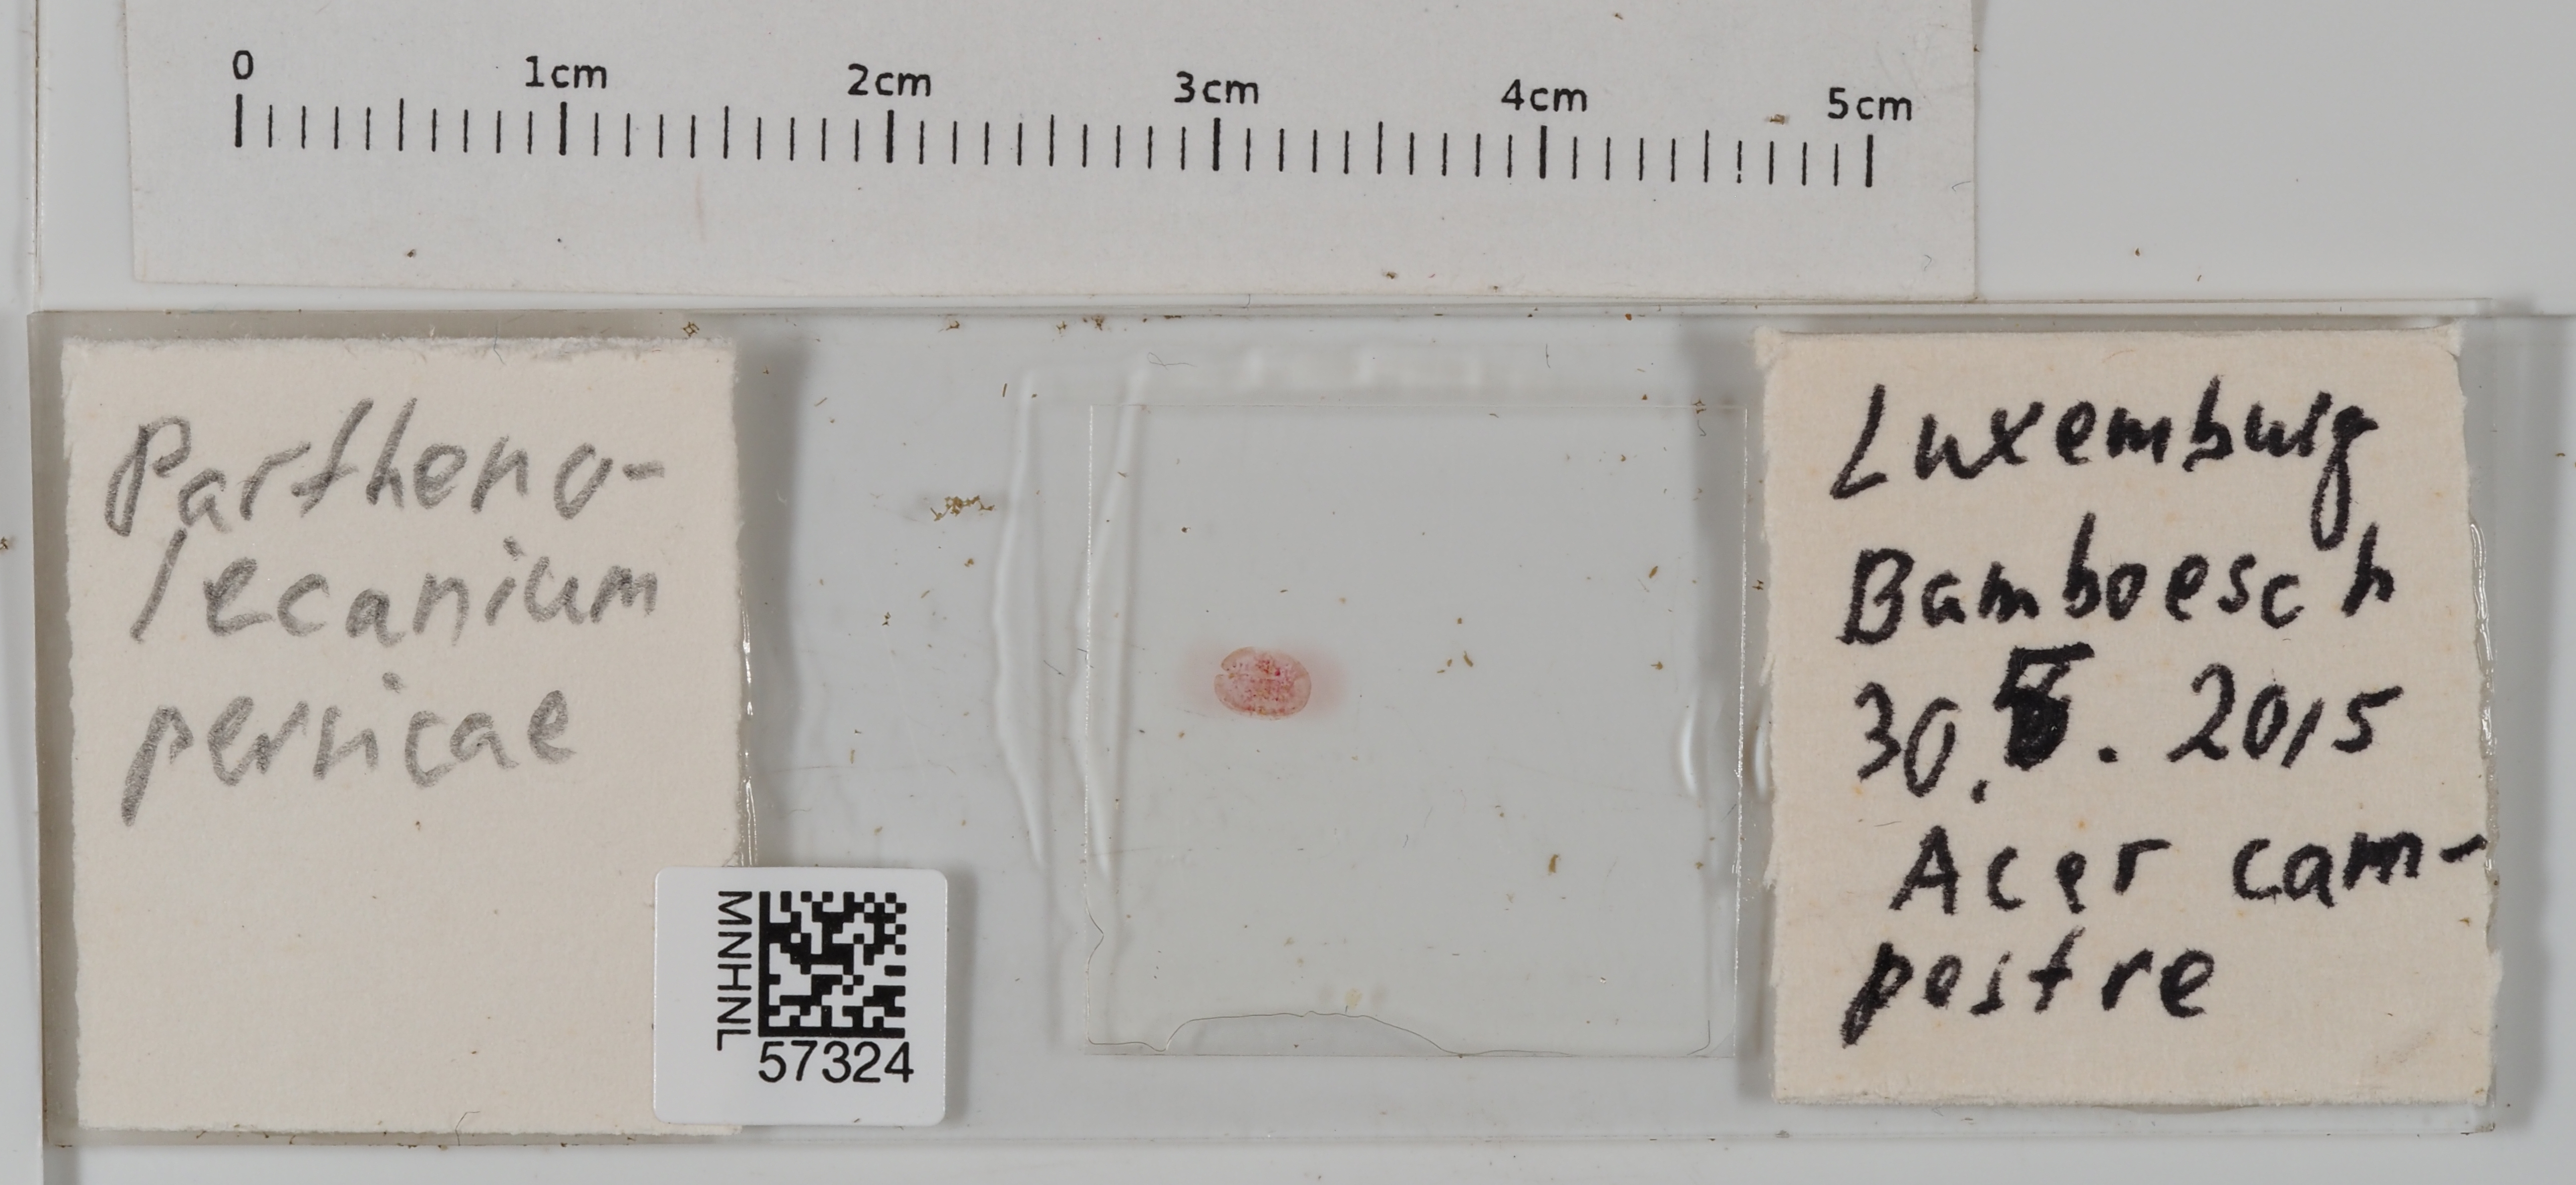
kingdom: Animalia
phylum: Arthropoda
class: Insecta
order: Hemiptera
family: Coccidae
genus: Parthenolecanium
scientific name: Parthenolecanium persicae
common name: Peach scale
